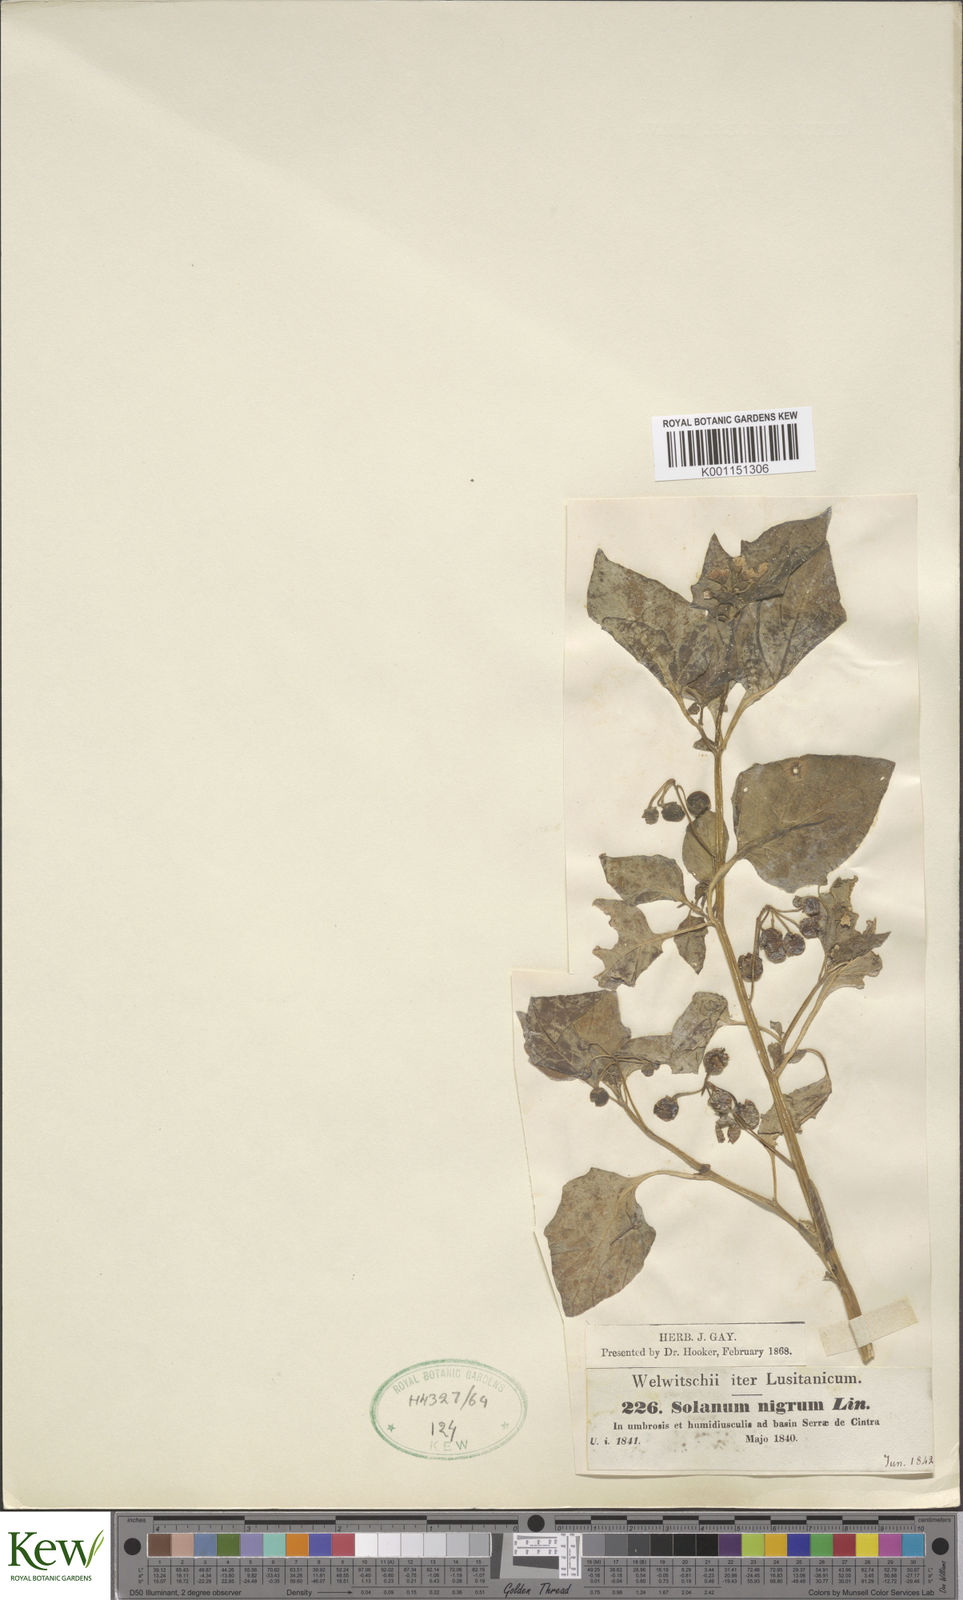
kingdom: Plantae
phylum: Tracheophyta
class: Magnoliopsida
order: Solanales
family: Solanaceae
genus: Solanum
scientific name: Solanum nigrum
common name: Black nightshade
